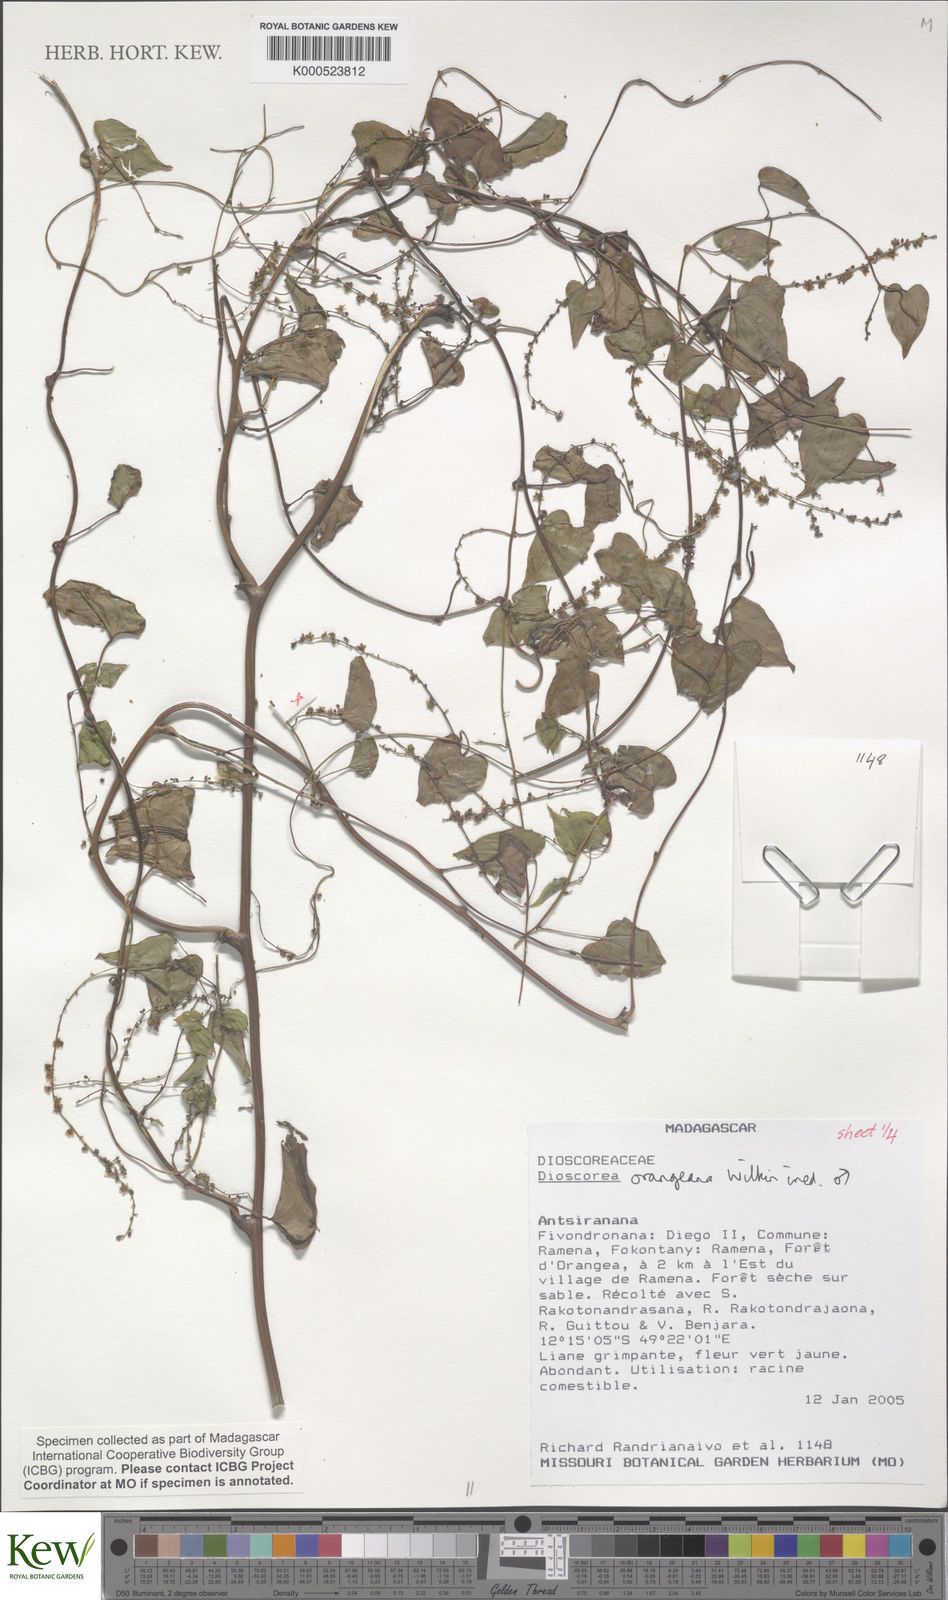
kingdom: Plantae
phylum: Tracheophyta
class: Liliopsida
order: Dioscoreales
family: Dioscoreaceae
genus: Dioscorea
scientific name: Dioscorea orangeana
